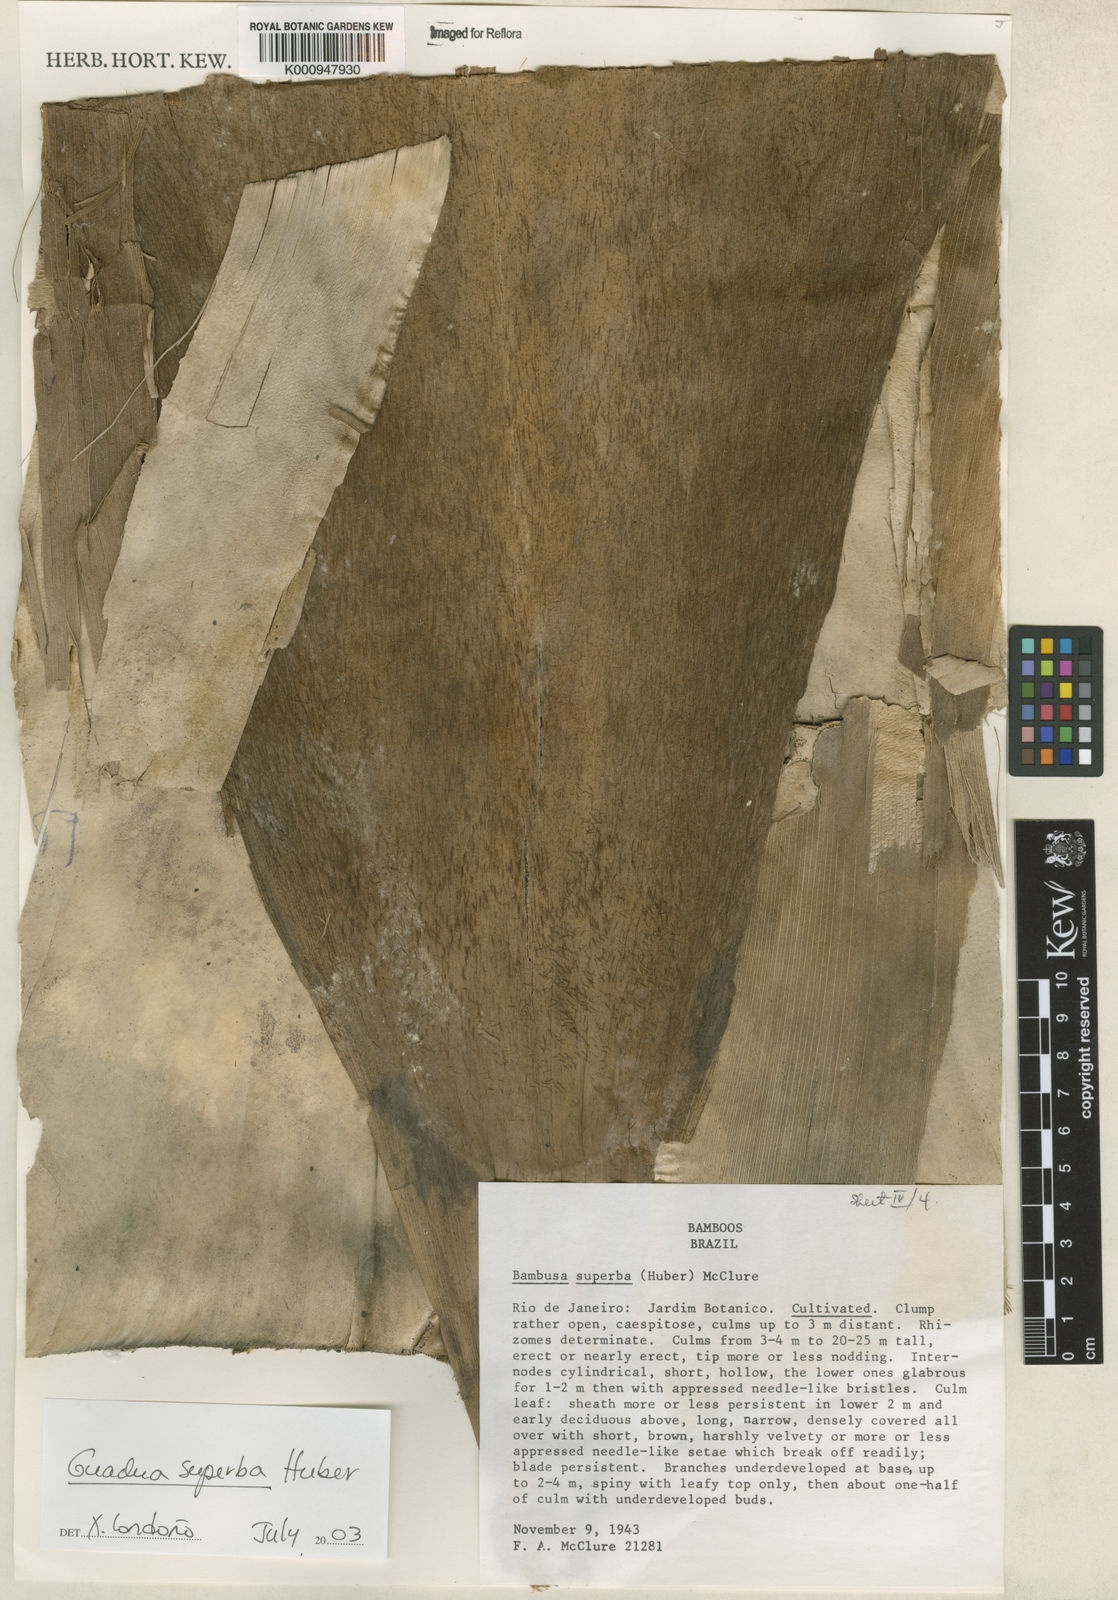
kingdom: Plantae
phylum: Tracheophyta
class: Liliopsida
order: Poales
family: Poaceae
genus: Guadua
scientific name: Guadua superba
